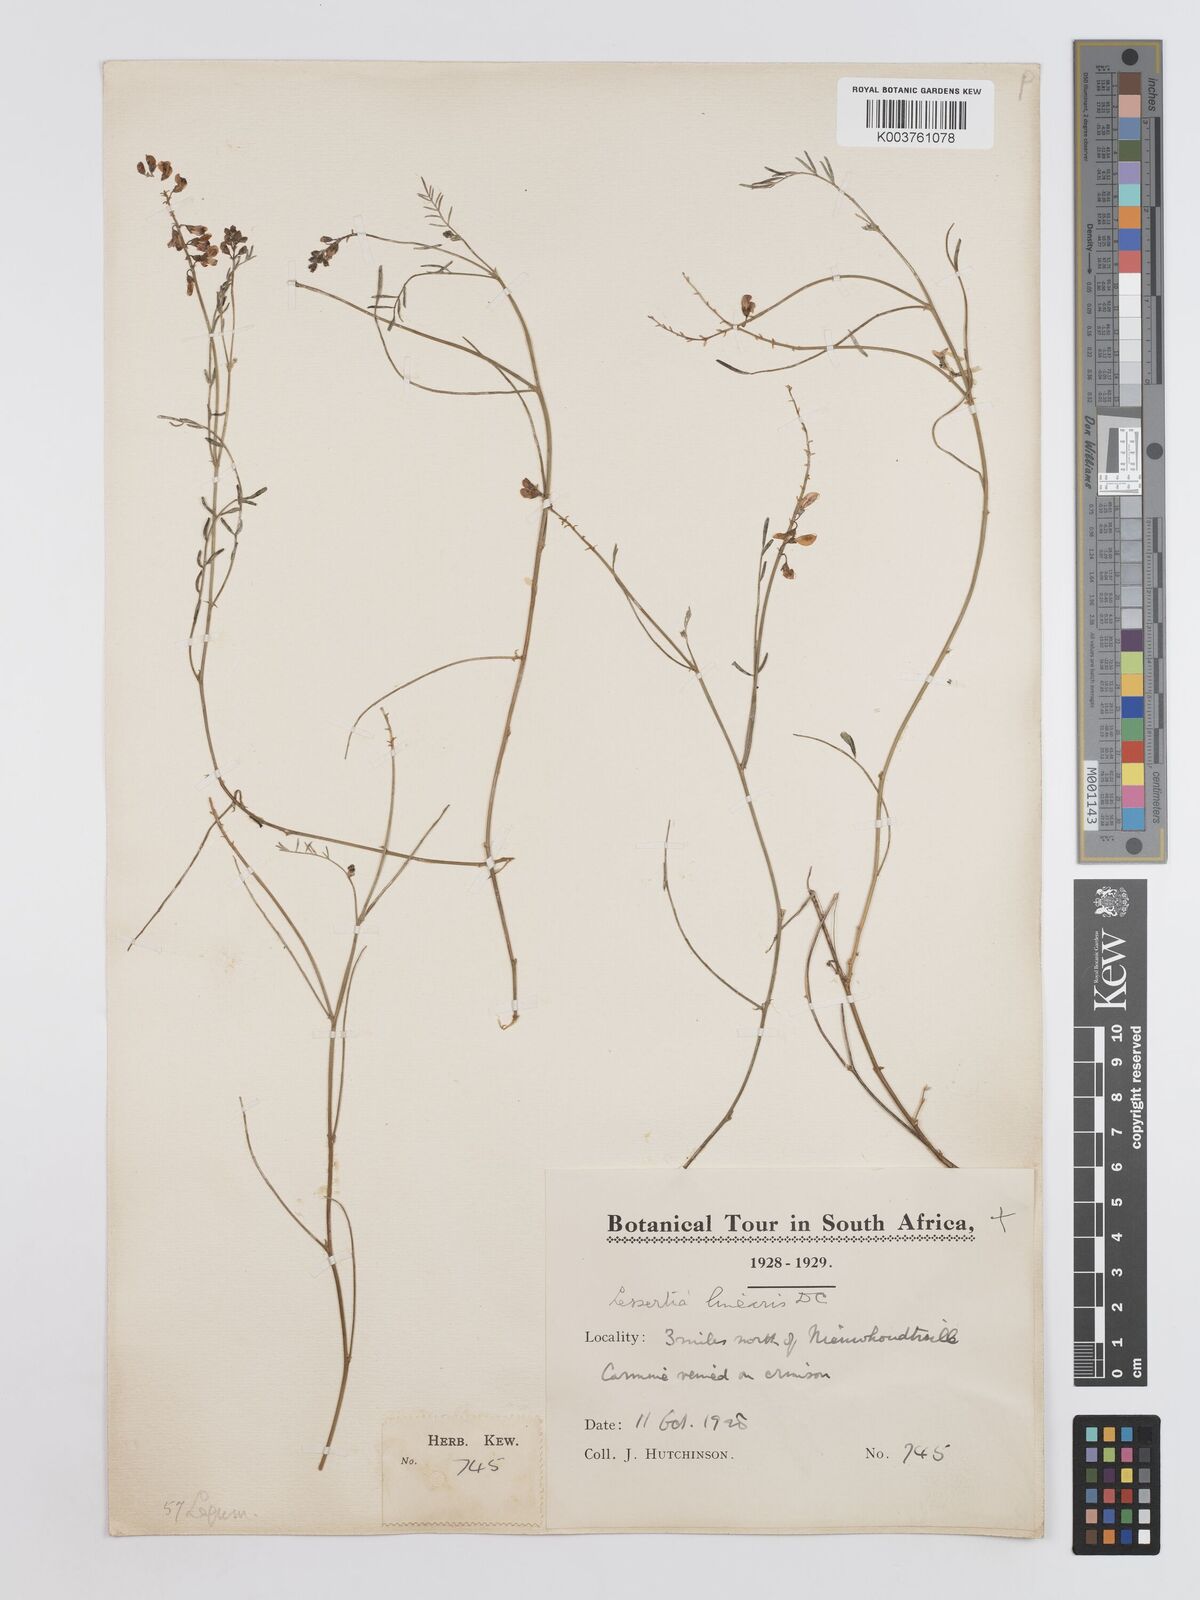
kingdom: Plantae
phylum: Tracheophyta
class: Magnoliopsida
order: Fabales
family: Fabaceae
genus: Lessertia
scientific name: Lessertia herbacea
